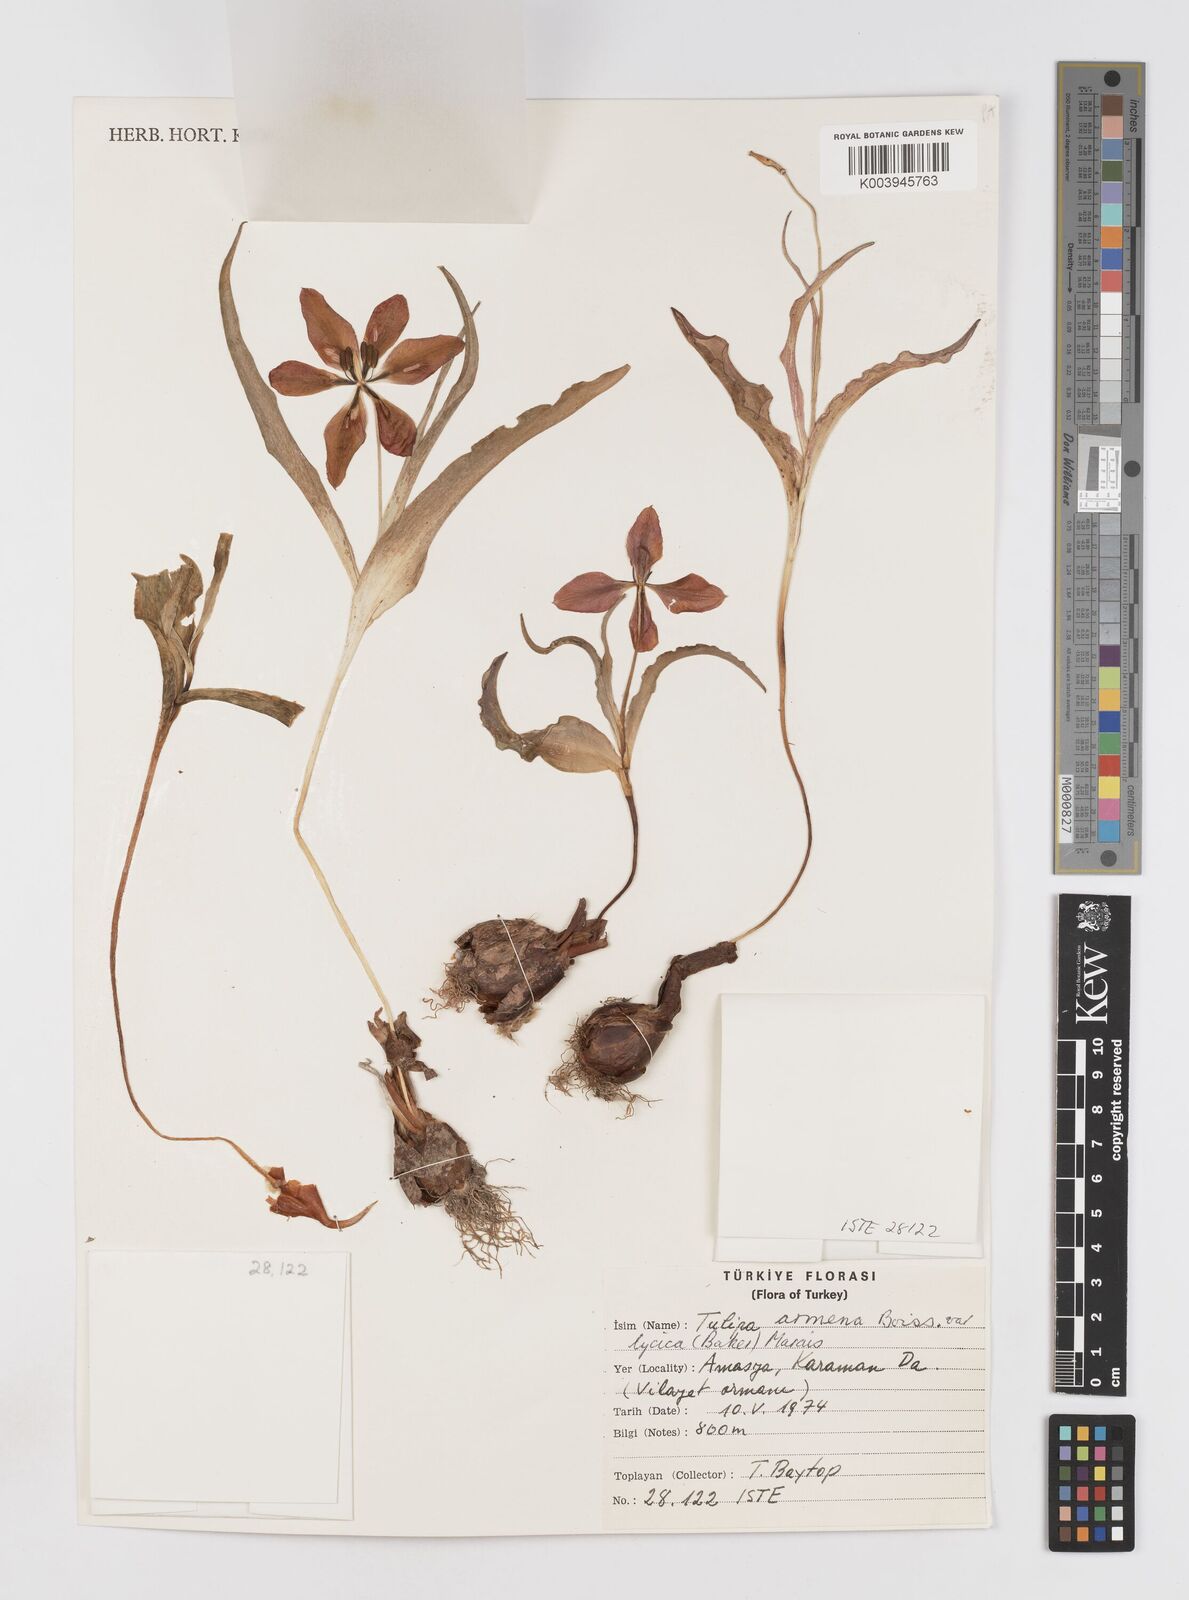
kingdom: Plantae
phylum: Tracheophyta
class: Liliopsida
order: Liliales
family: Liliaceae
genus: Tulipa
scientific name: Tulipa foliosa
